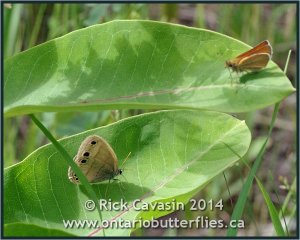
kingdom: Animalia
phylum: Arthropoda
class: Insecta
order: Lepidoptera
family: Nymphalidae
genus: Euptychia
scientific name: Euptychia cymela
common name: Little Wood Satyr
